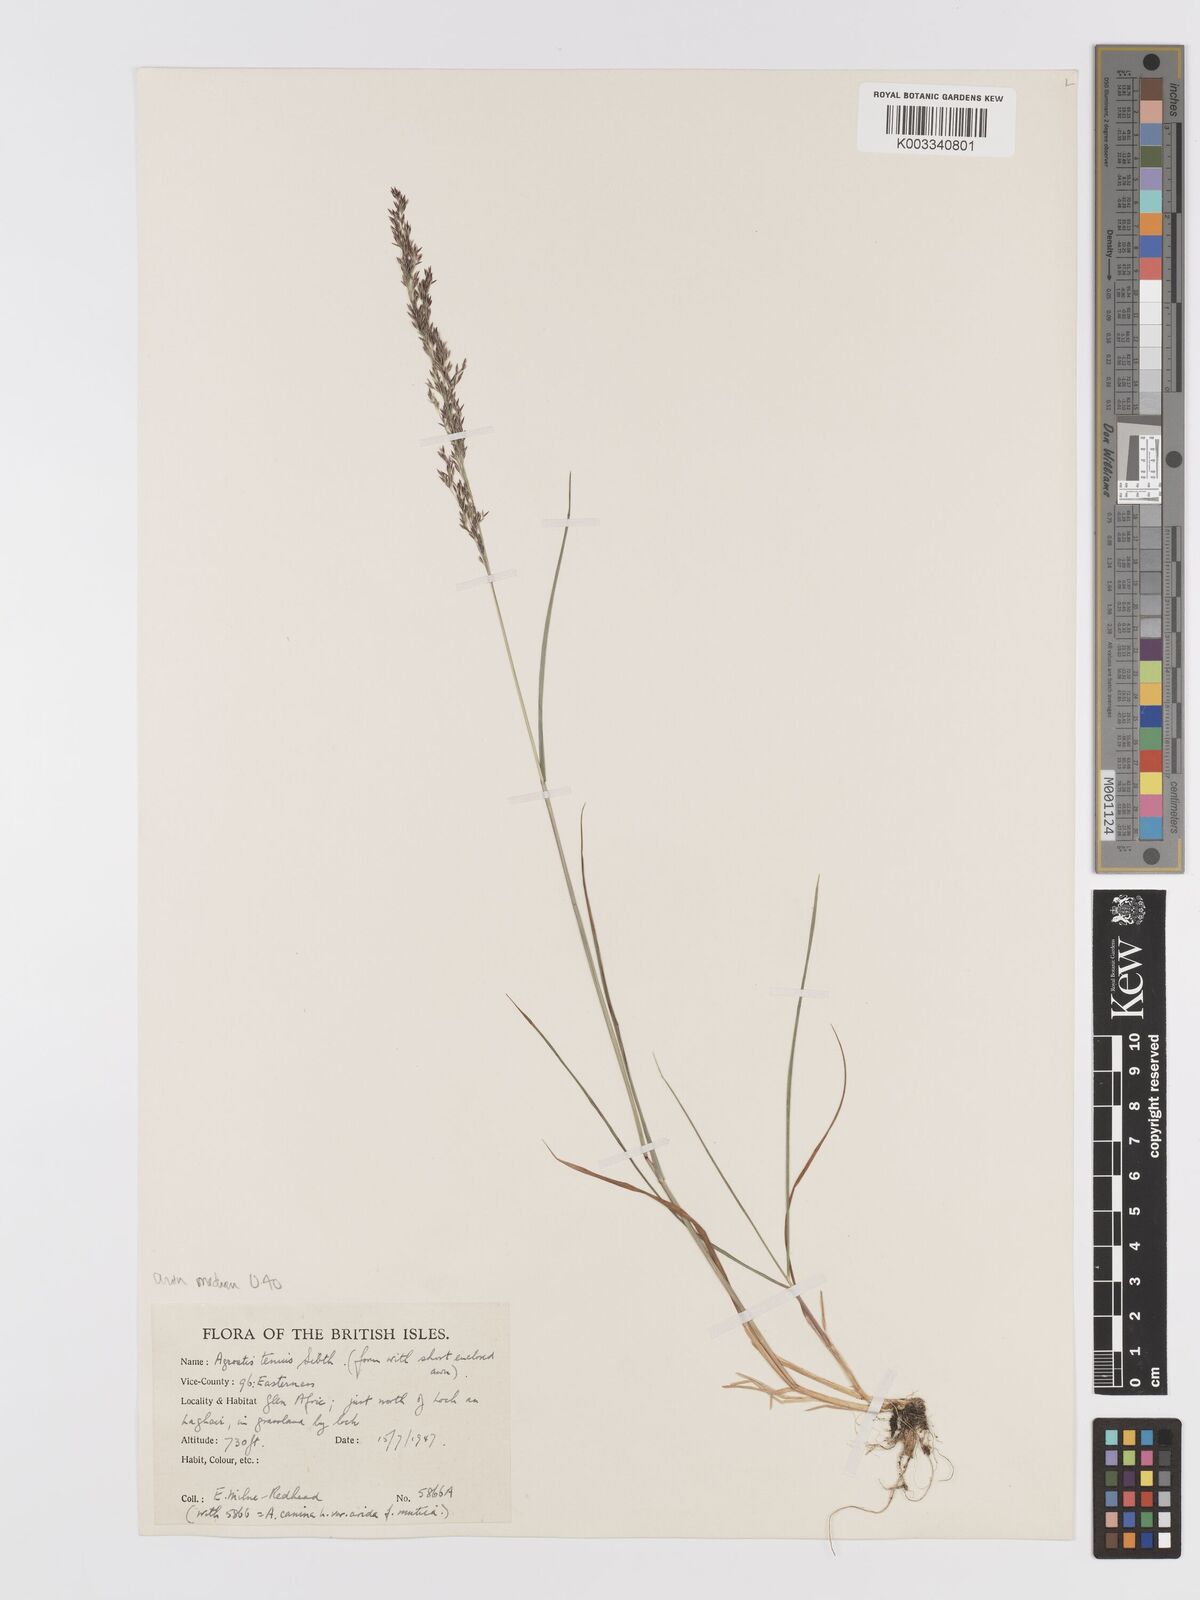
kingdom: Plantae
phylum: Tracheophyta
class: Liliopsida
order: Poales
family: Poaceae
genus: Agrostis
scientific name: Agrostis capillaris
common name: Colonial bentgrass
